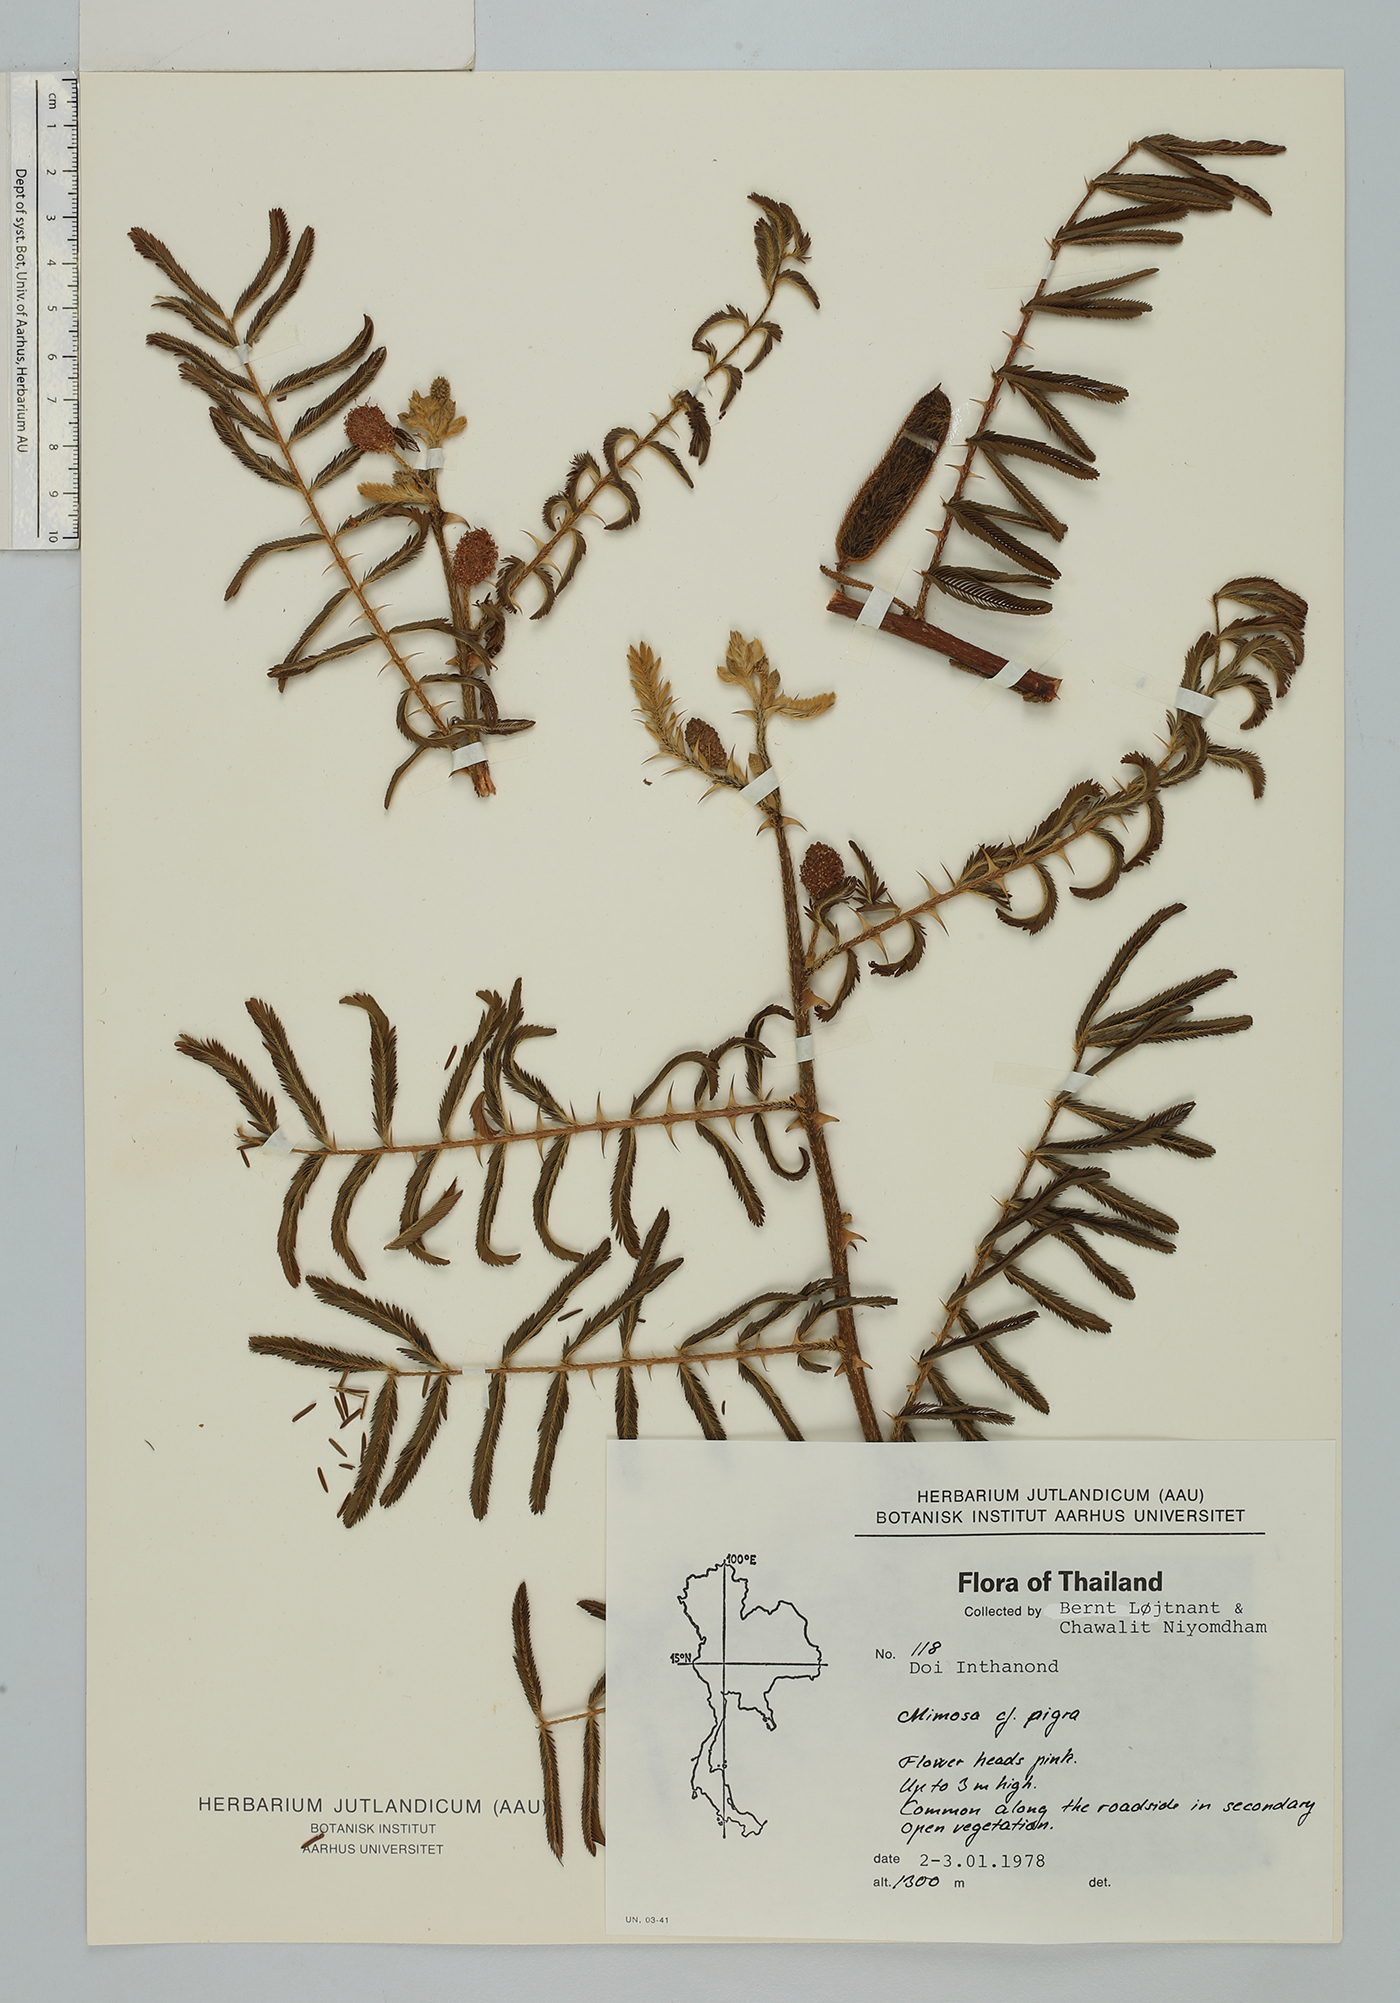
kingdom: Plantae
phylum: Tracheophyta
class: Magnoliopsida
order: Fabales
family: Fabaceae
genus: Mimosa
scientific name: Mimosa pigra
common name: Black mimosa
